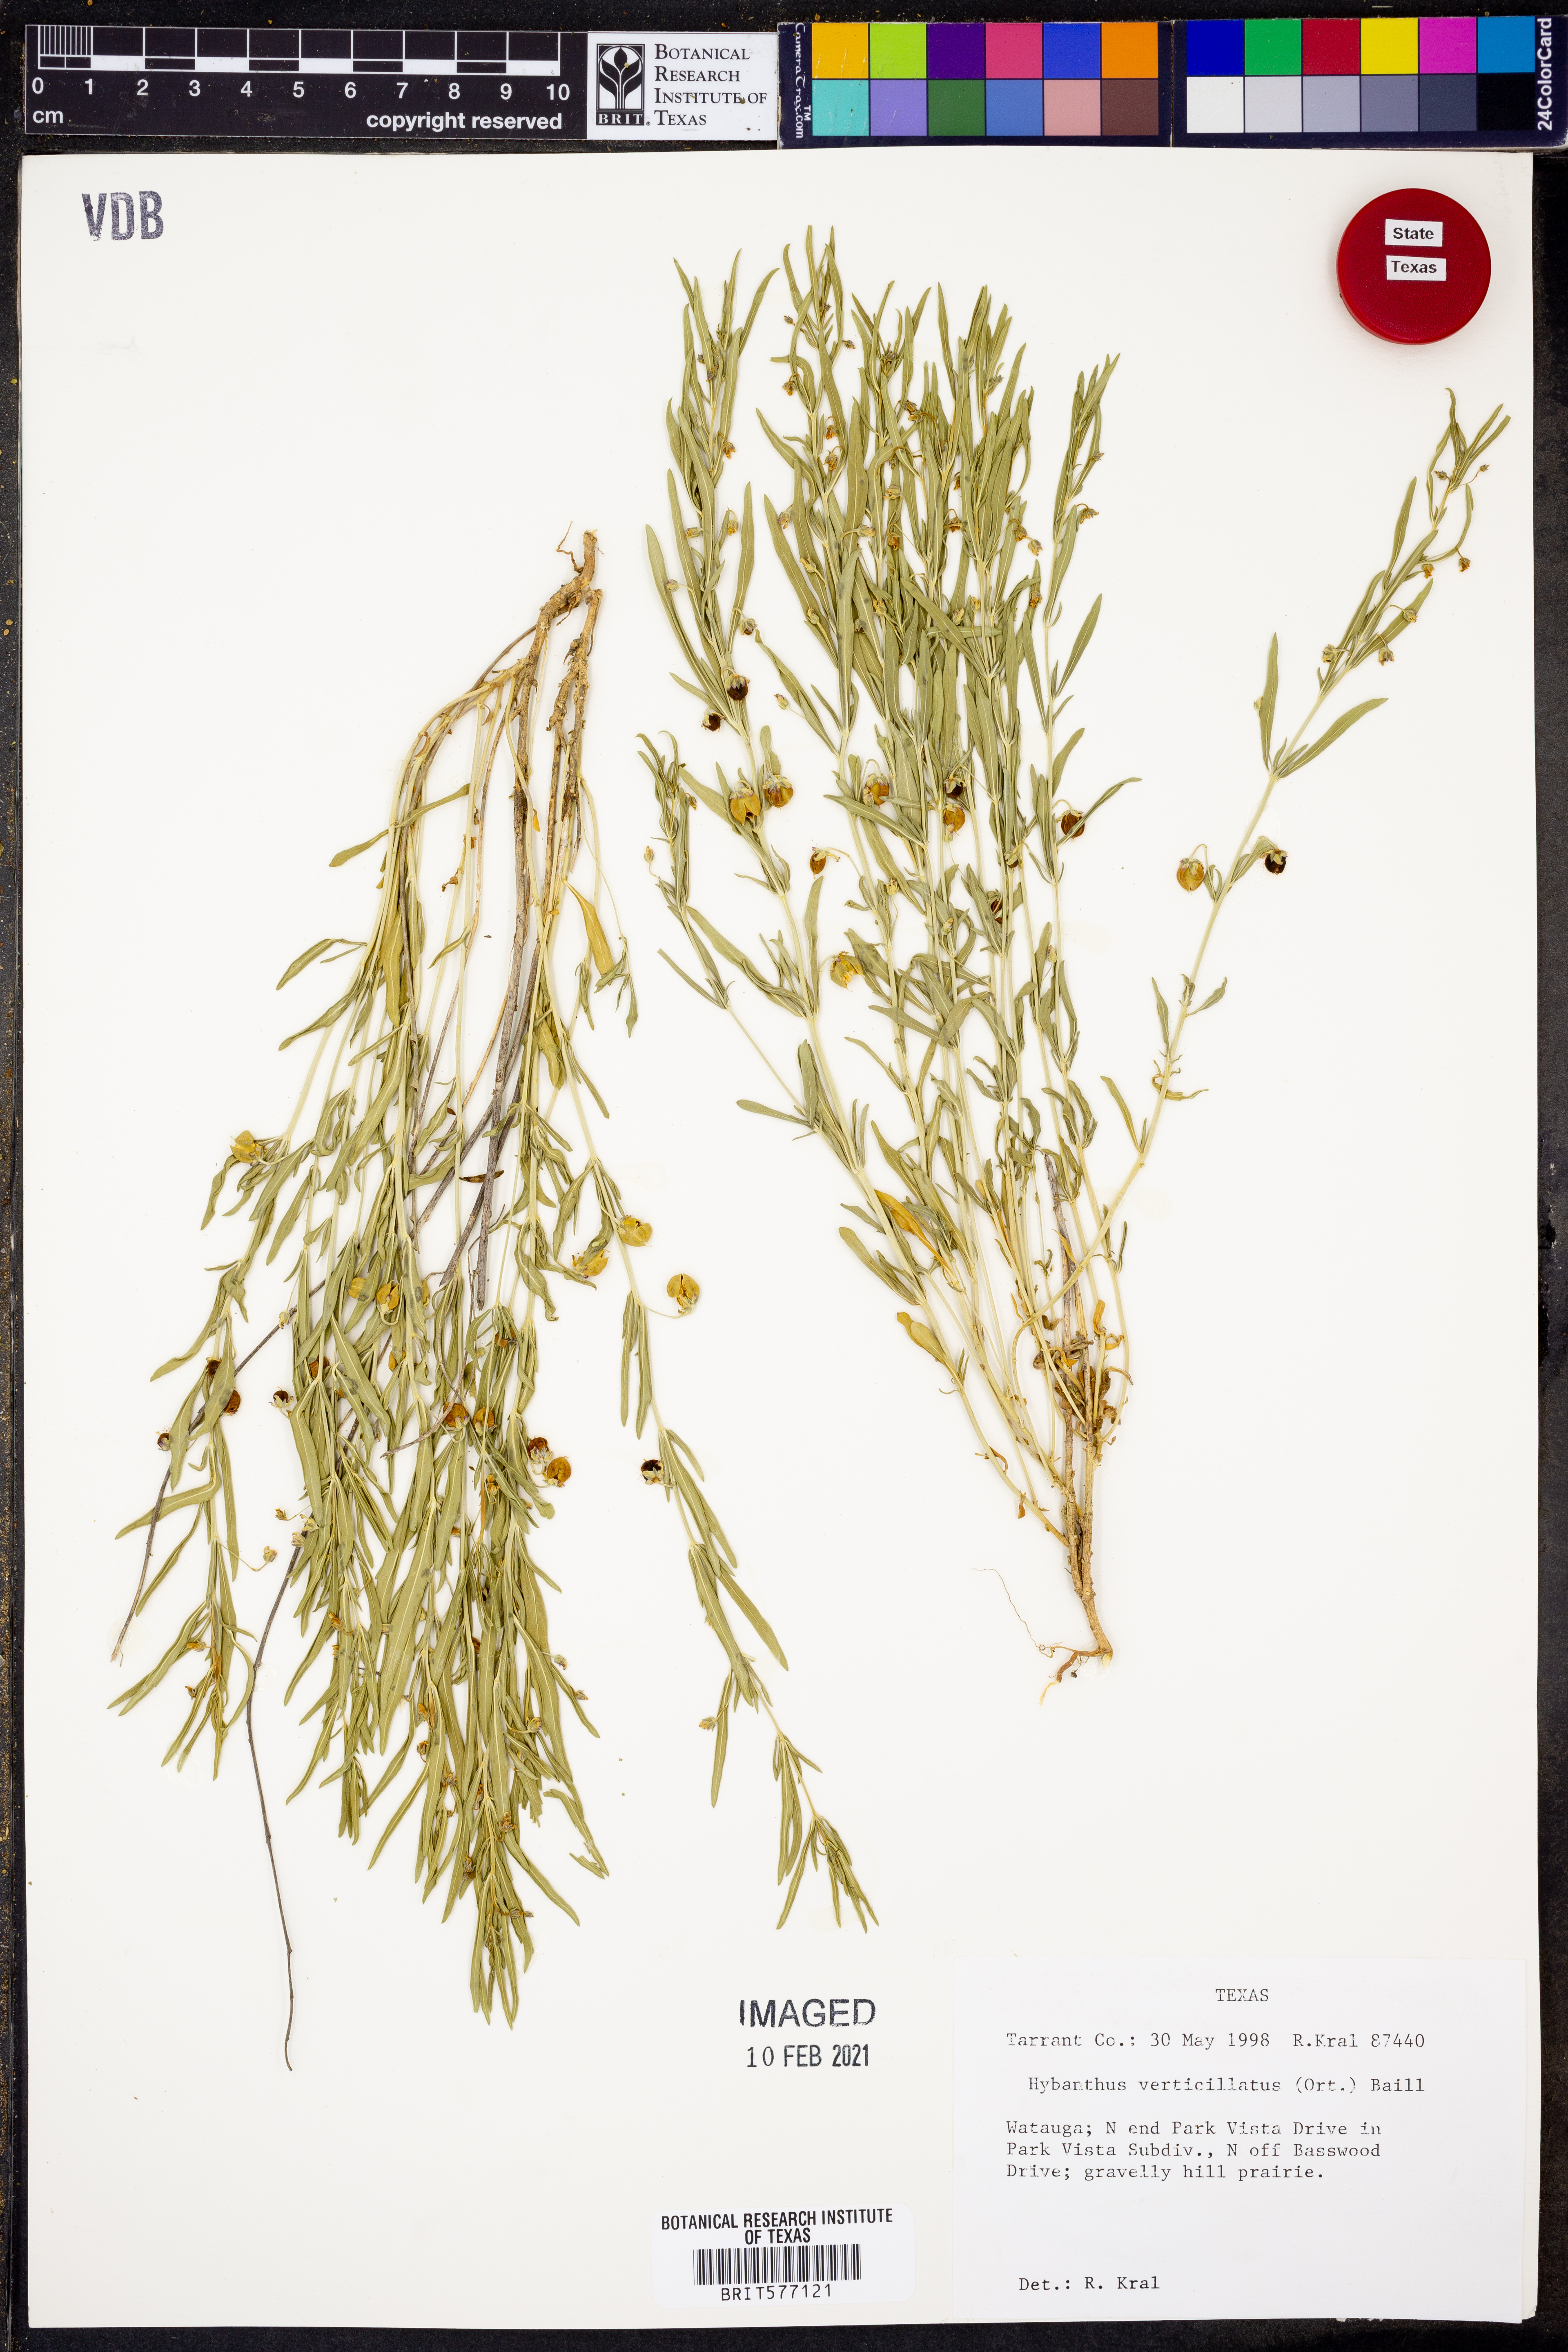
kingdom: Plantae
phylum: Tracheophyta
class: Magnoliopsida
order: Malpighiales
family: Violaceae
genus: Pombalia
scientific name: Pombalia verticillata
